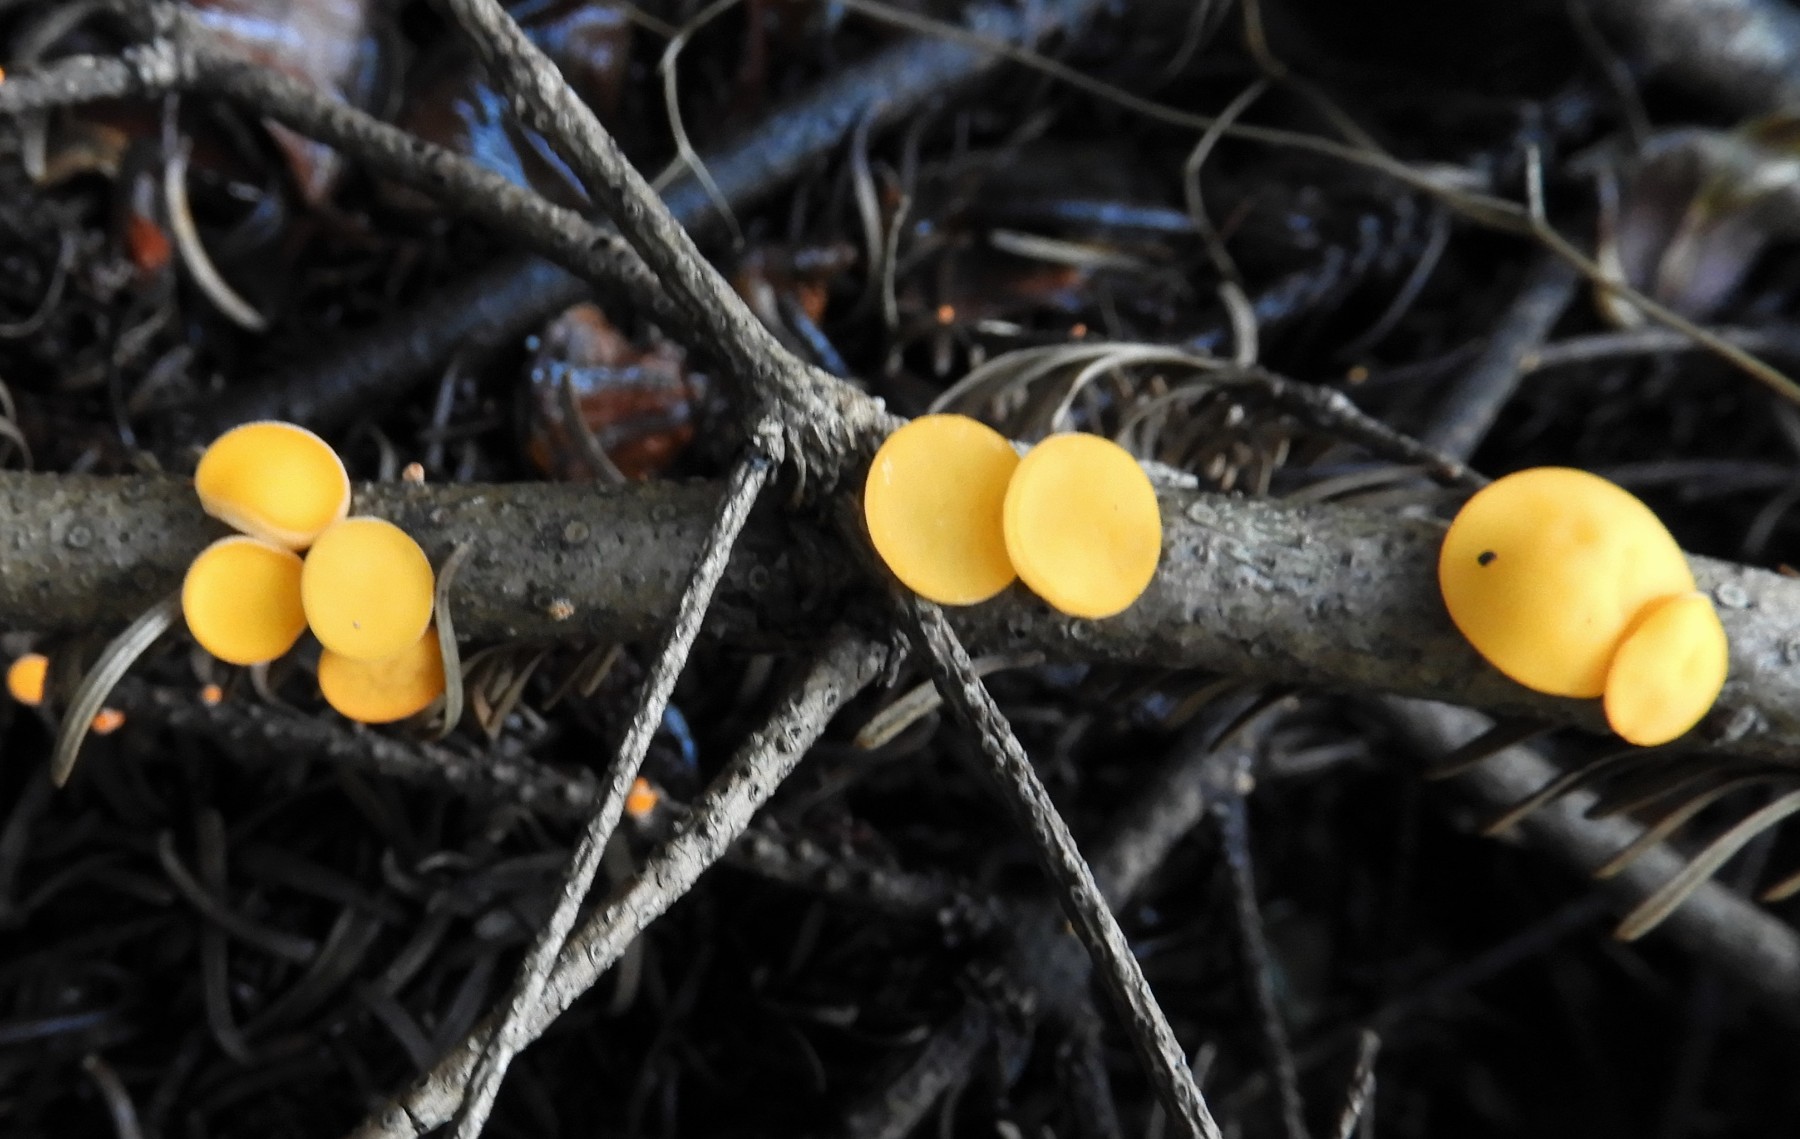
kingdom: Fungi
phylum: Ascomycota
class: Pezizomycetes
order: Pezizales
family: Sarcoscyphaceae
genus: Pithya
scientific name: Pithya vulgaris
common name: stor dukatbæger
